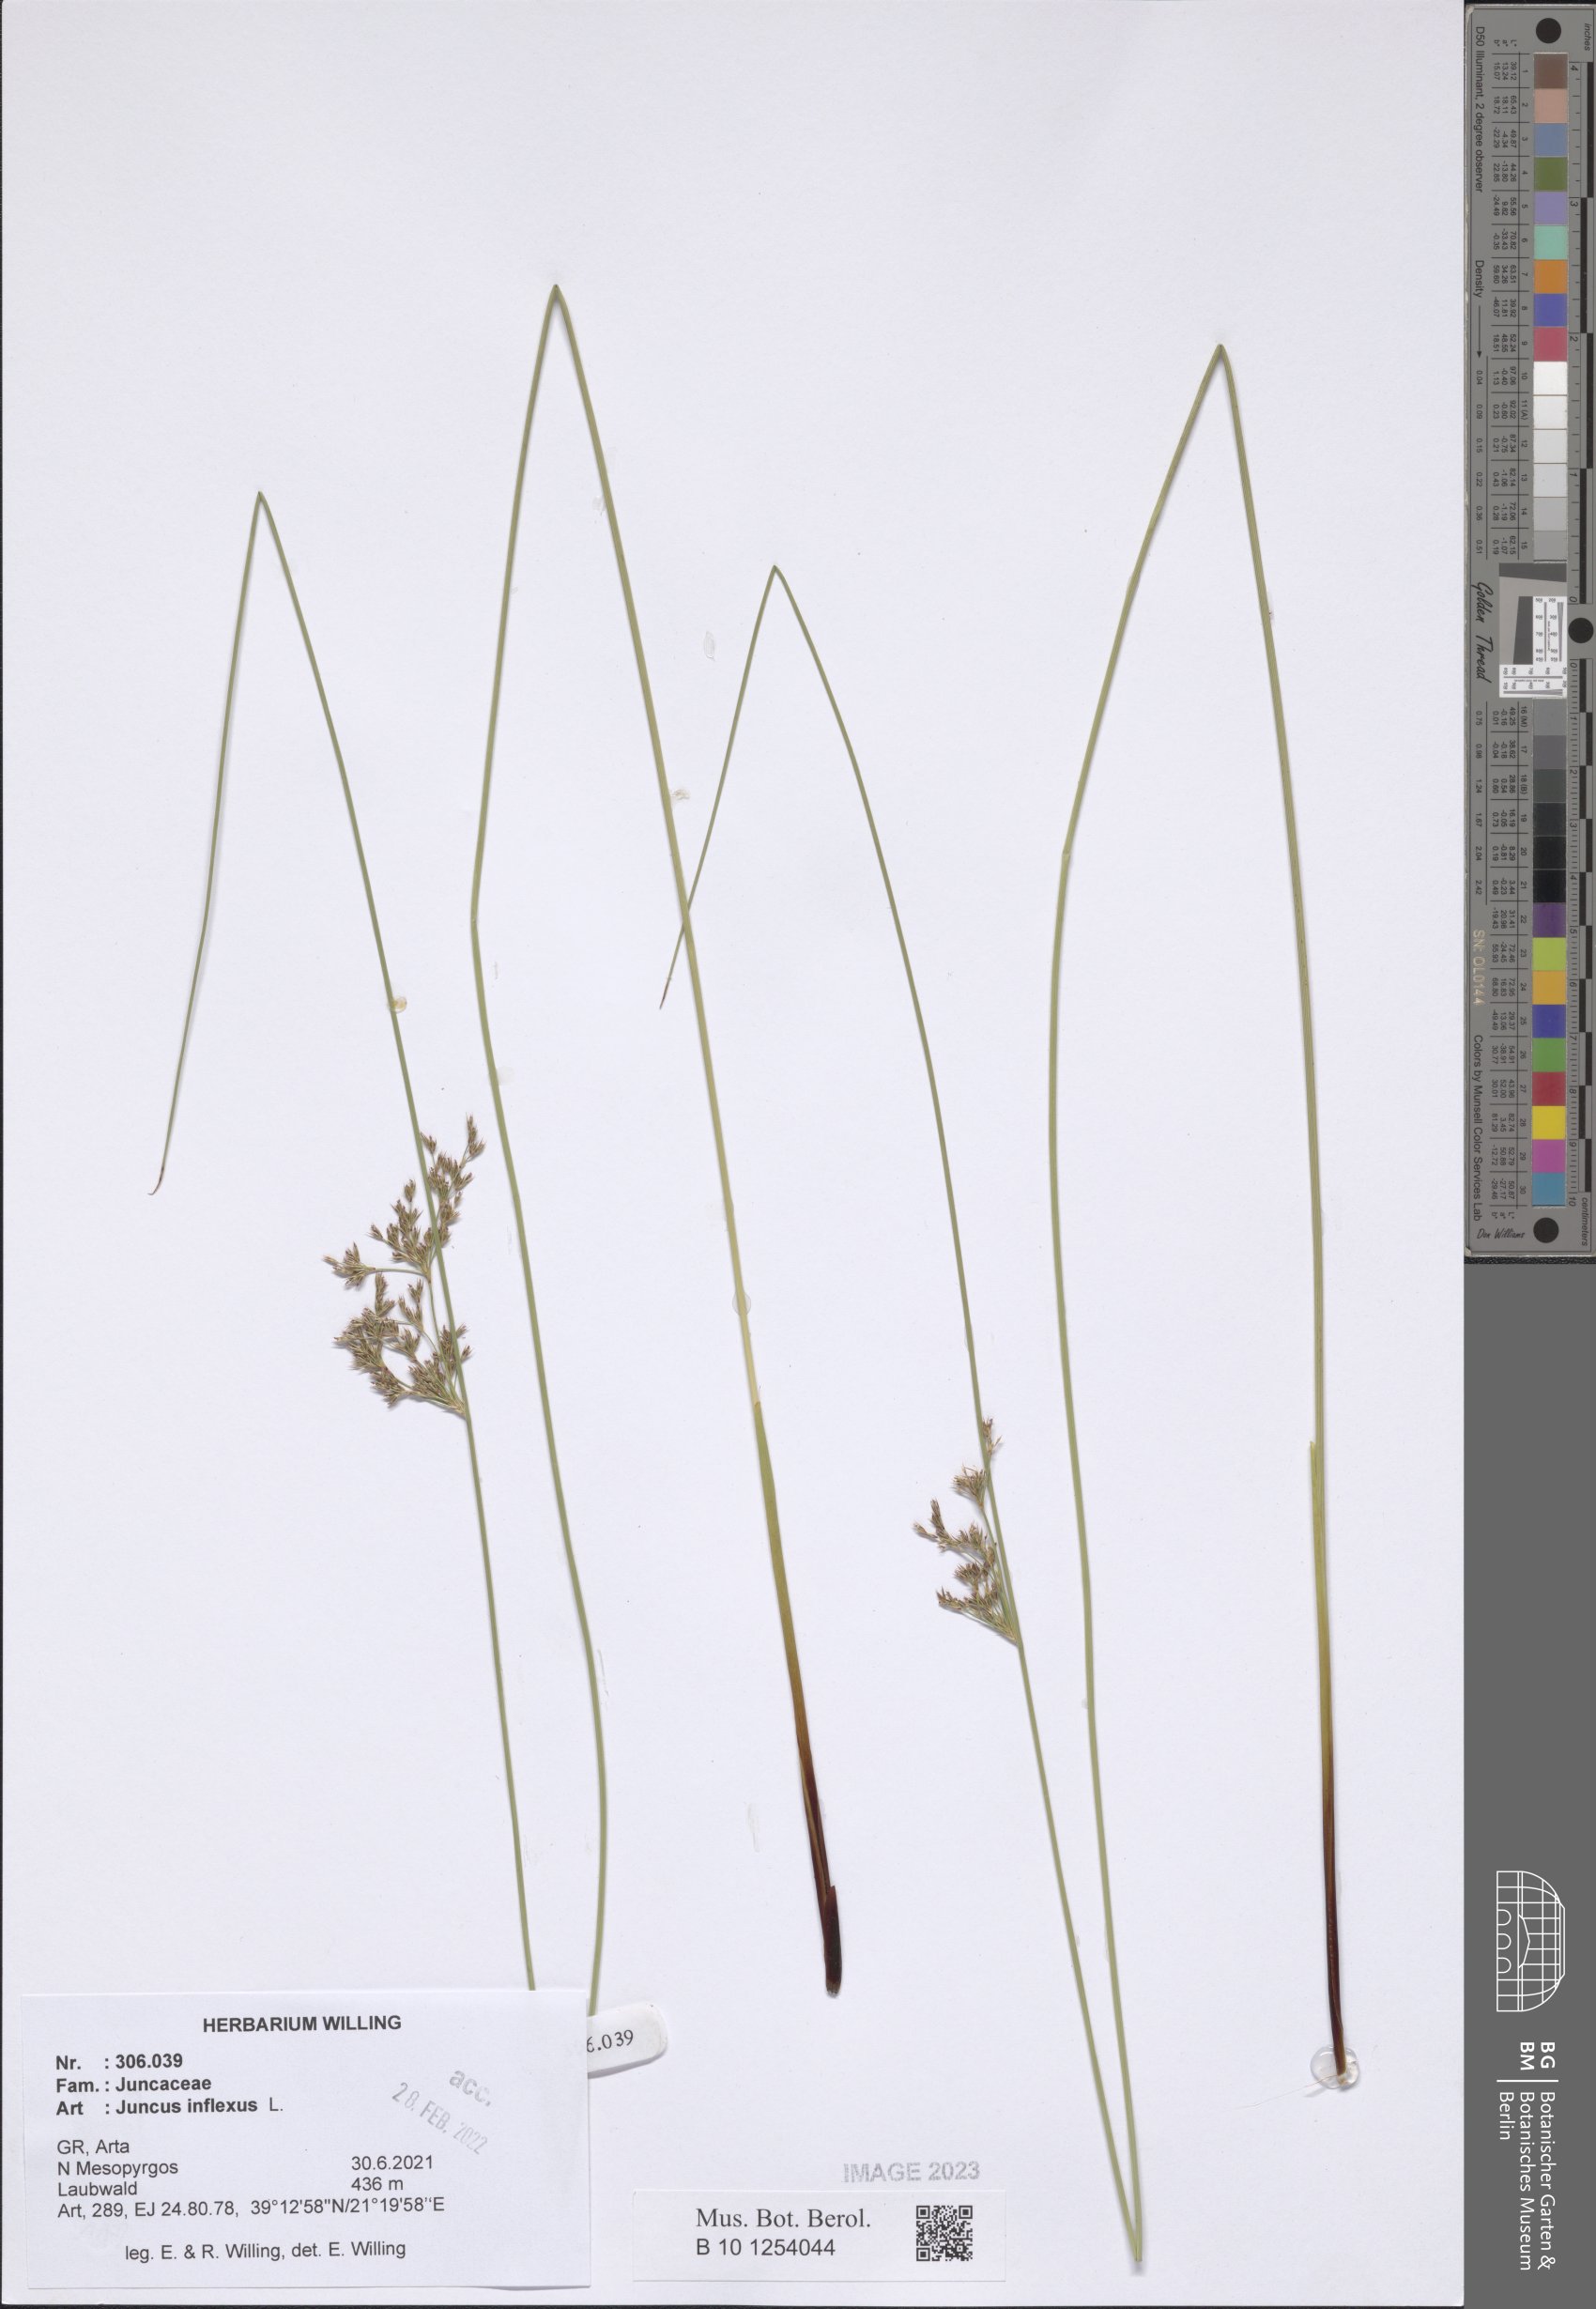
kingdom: Plantae
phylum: Tracheophyta
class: Liliopsida
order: Poales
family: Juncaceae
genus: Juncus
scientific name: Juncus inflexus
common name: Hard rush
